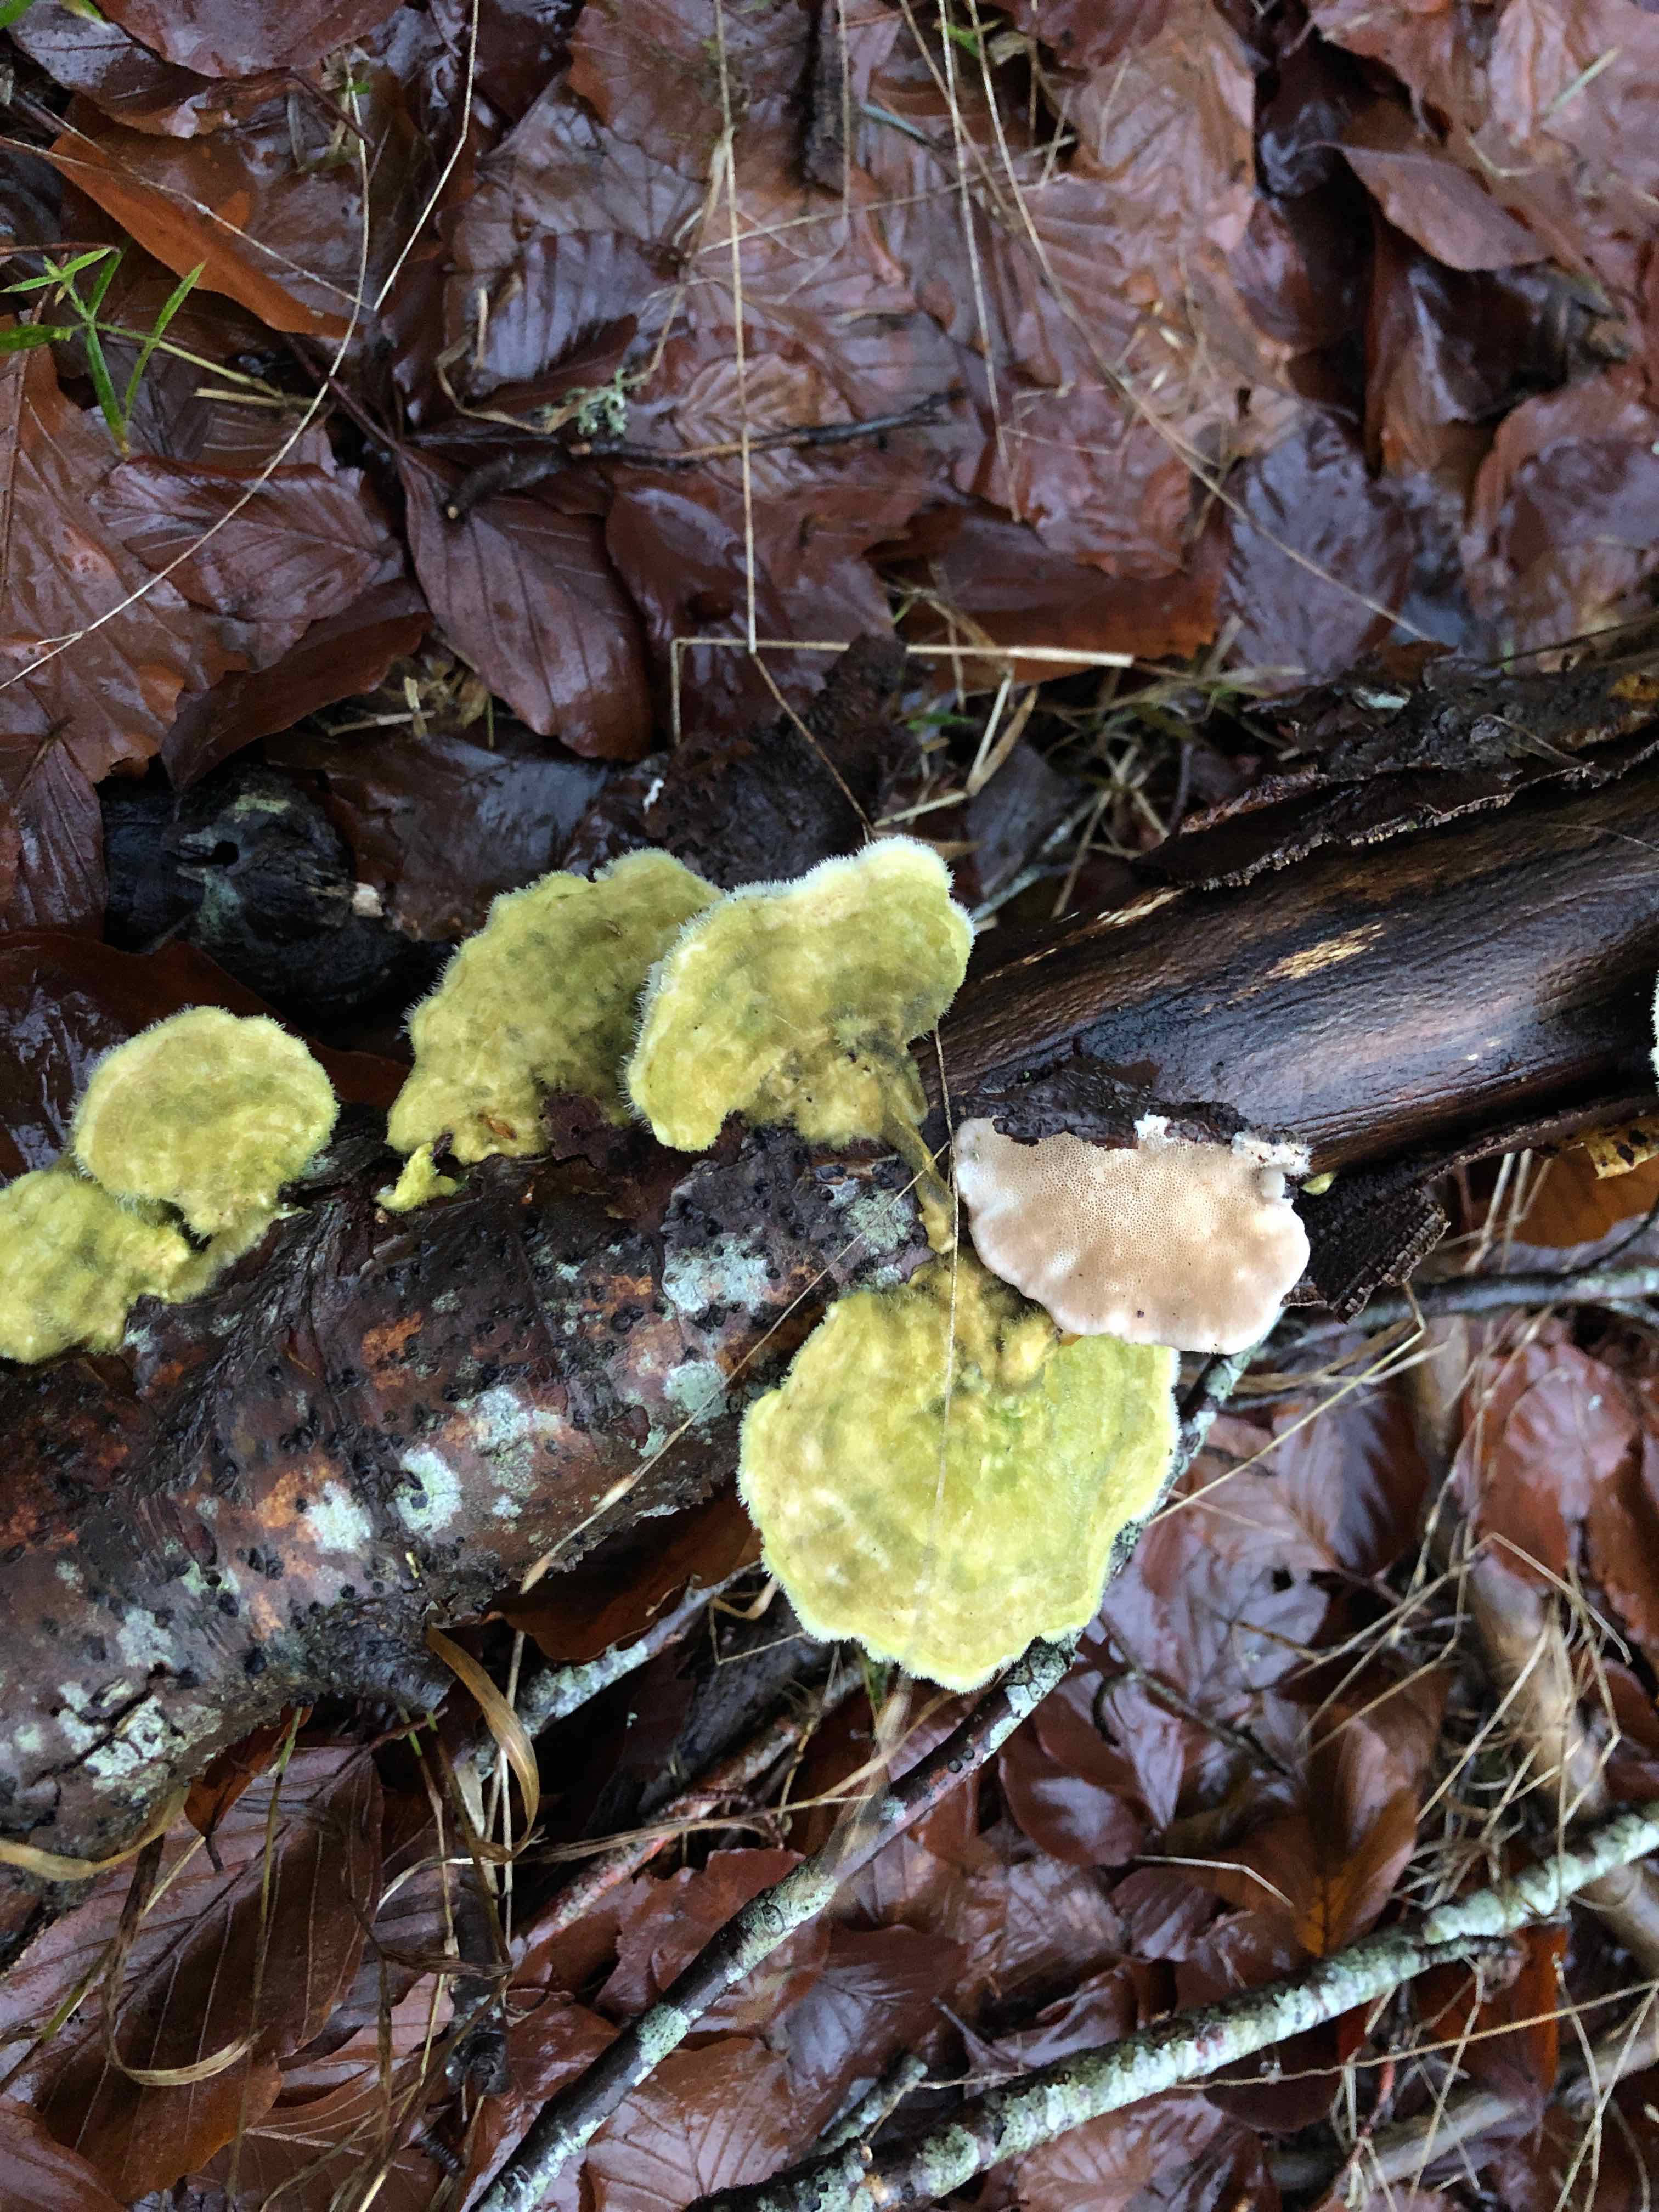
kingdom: Fungi
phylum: Basidiomycota
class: Agaricomycetes
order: Polyporales
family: Polyporaceae
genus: Trametes
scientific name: Trametes hirsuta
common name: håret læderporesvamp
